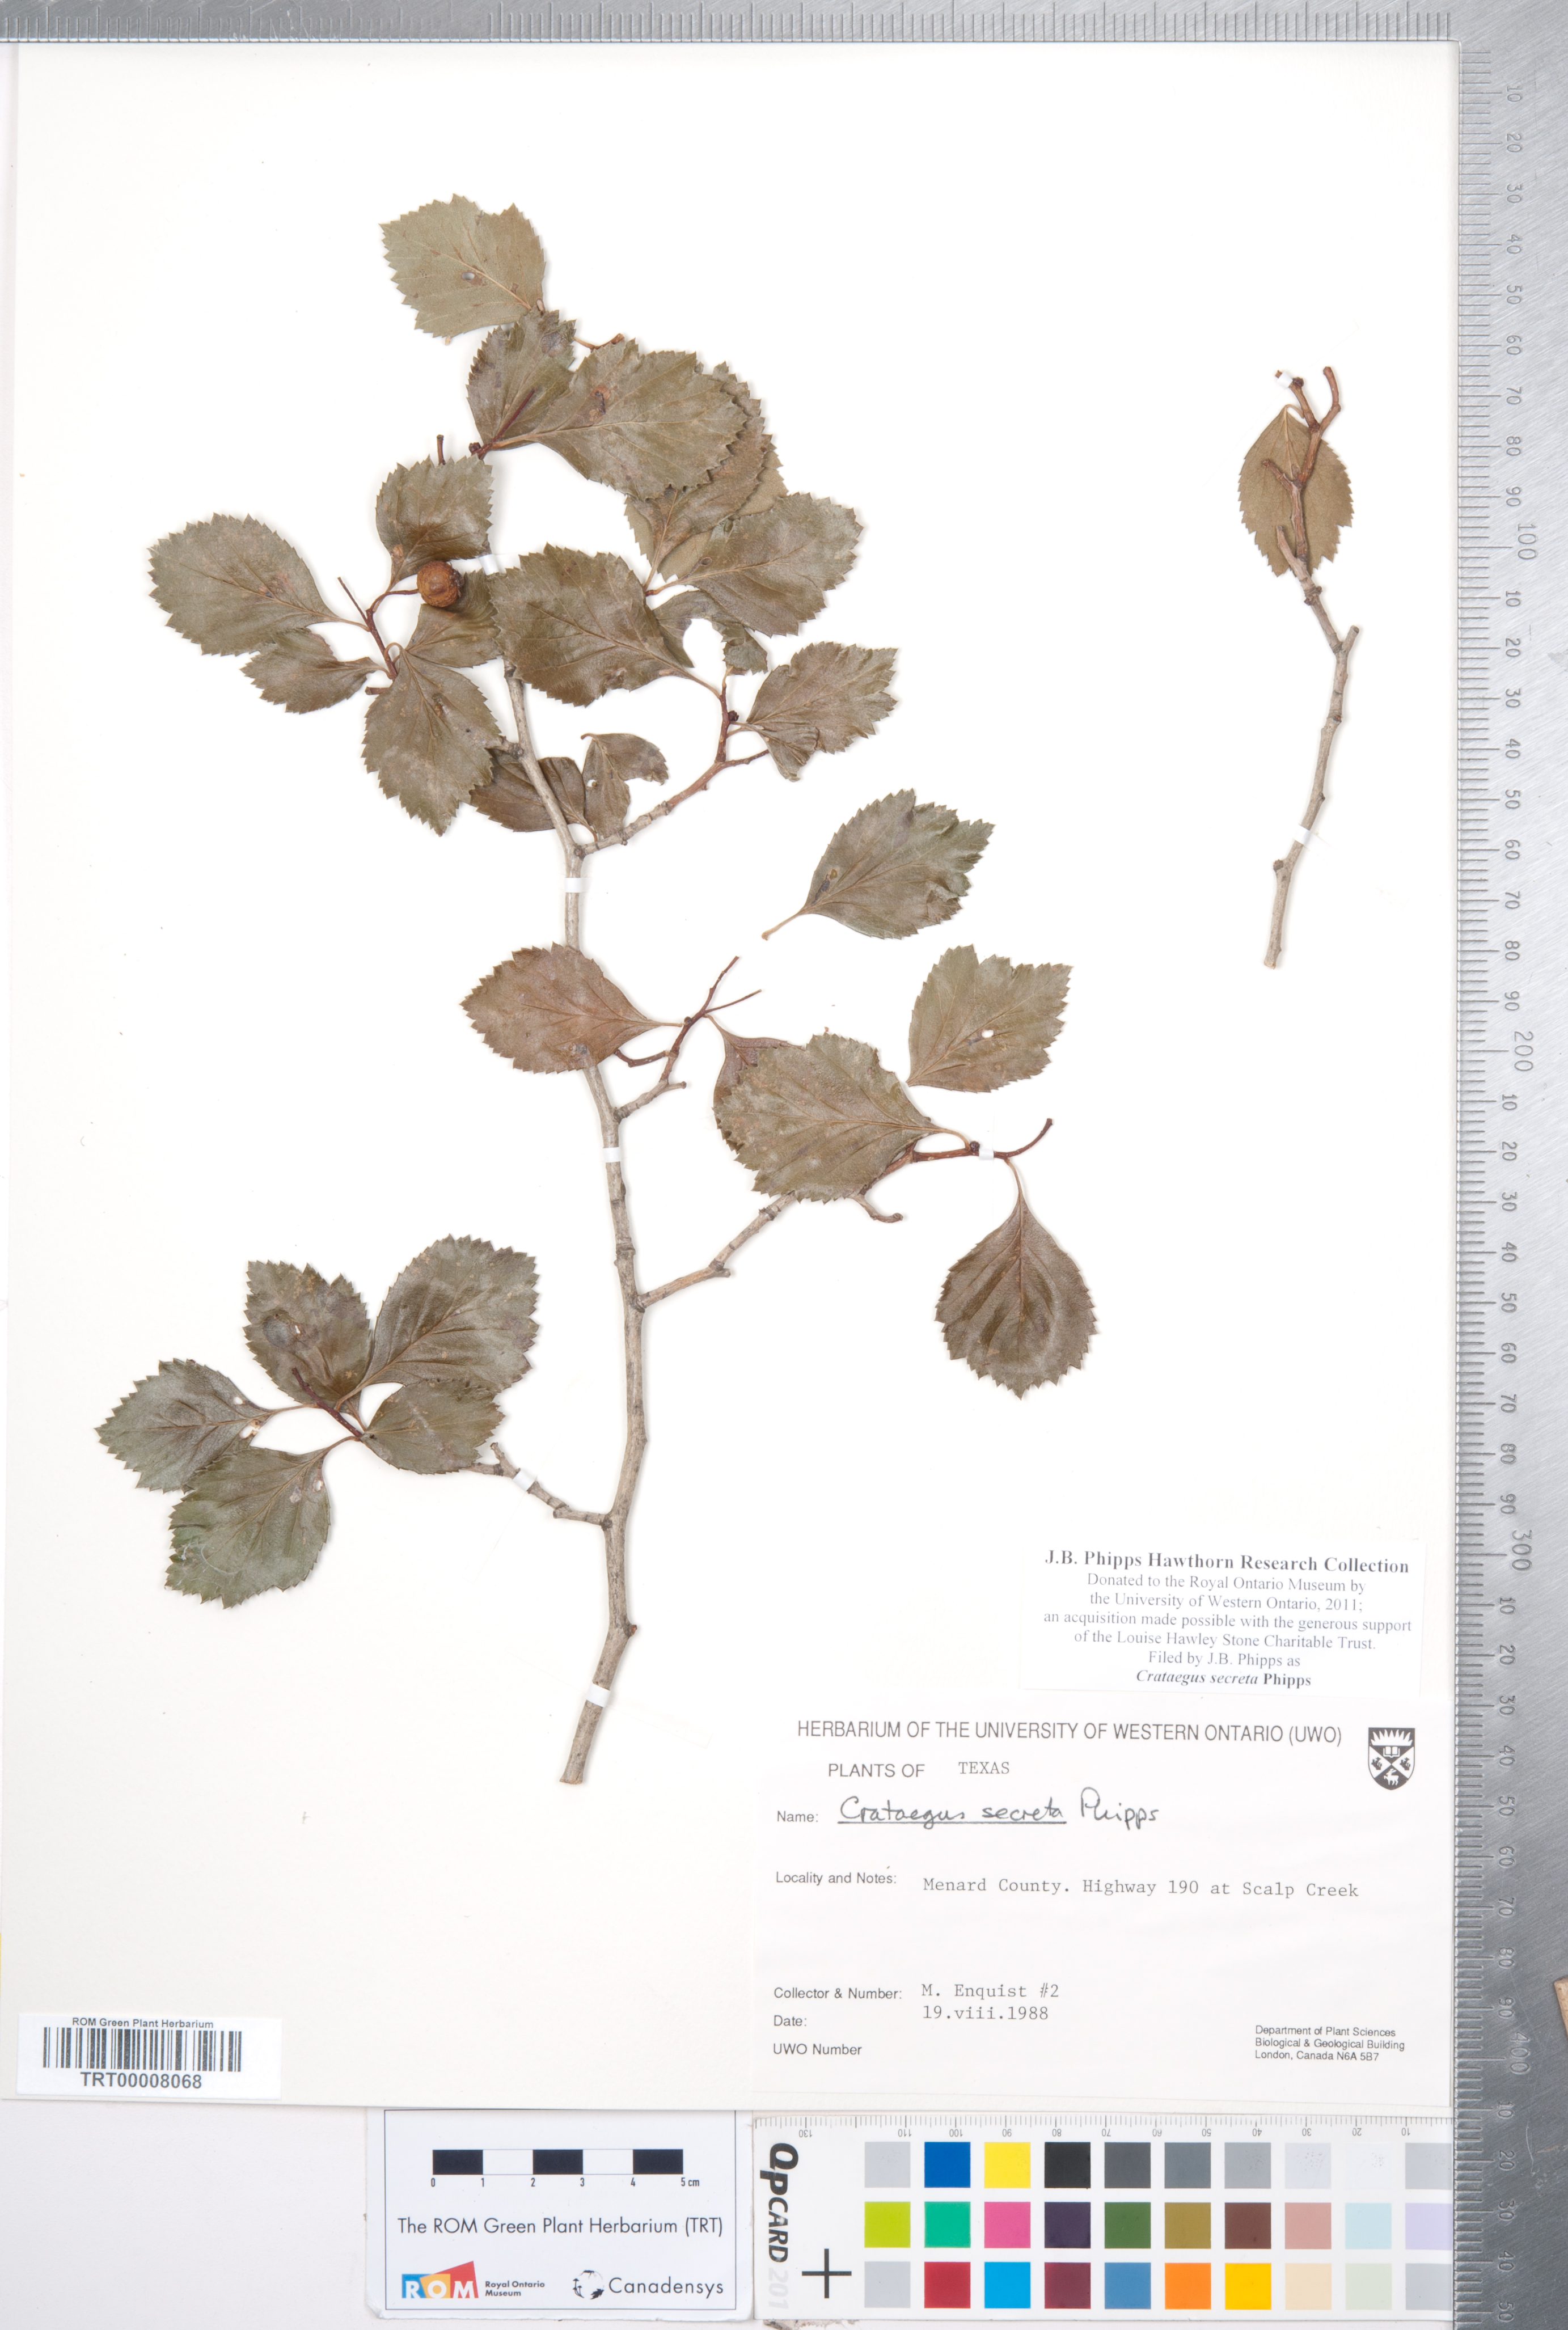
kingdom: Plantae
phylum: Tracheophyta
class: Magnoliopsida
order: Rosales
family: Rosaceae
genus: Crataegus
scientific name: Crataegus turnerorum
